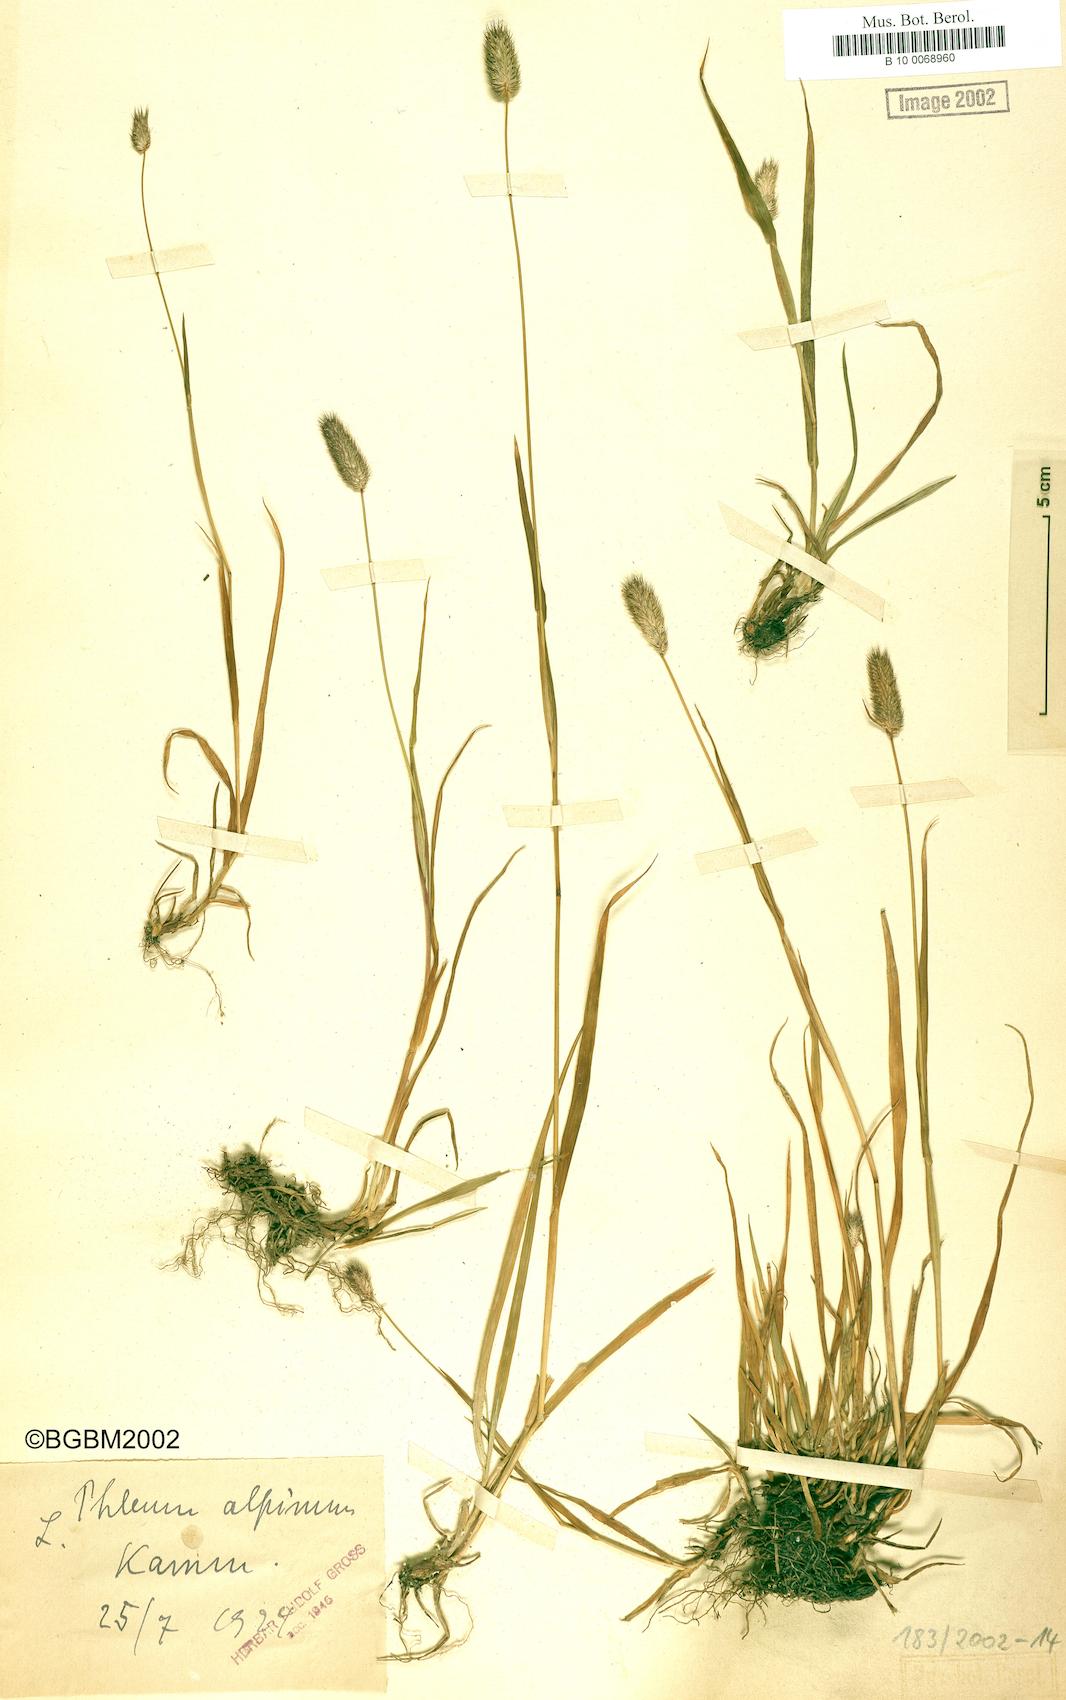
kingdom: Plantae
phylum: Tracheophyta
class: Liliopsida
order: Poales
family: Poaceae
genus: Phleum
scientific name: Phleum alpinum
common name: Alpine cat's-tail
